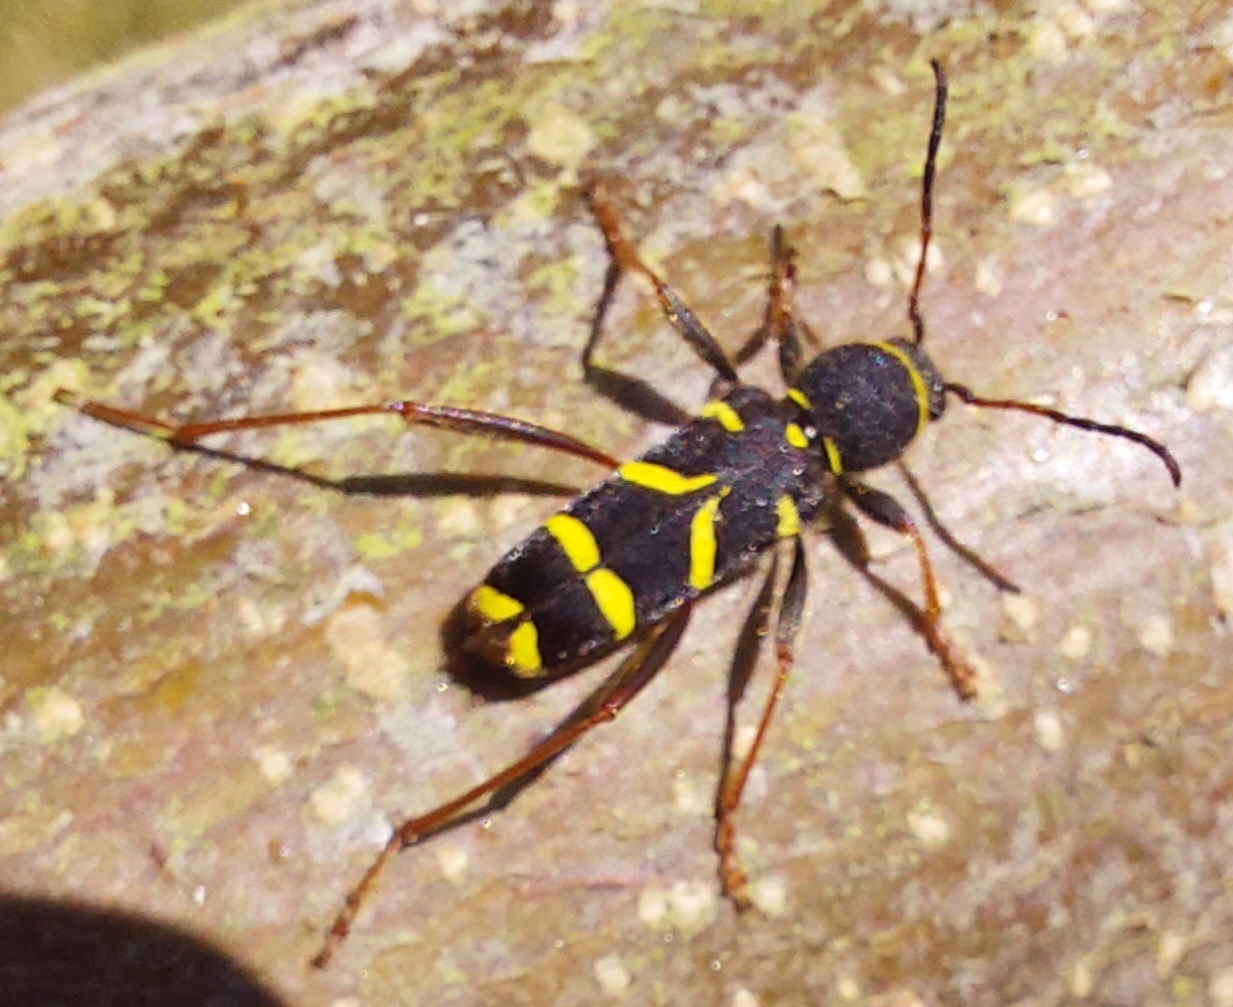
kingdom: Animalia
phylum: Arthropoda
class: Insecta
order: Coleoptera
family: Cerambycidae
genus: Clytus
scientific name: Clytus arietis
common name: Lille hvepsebuk
